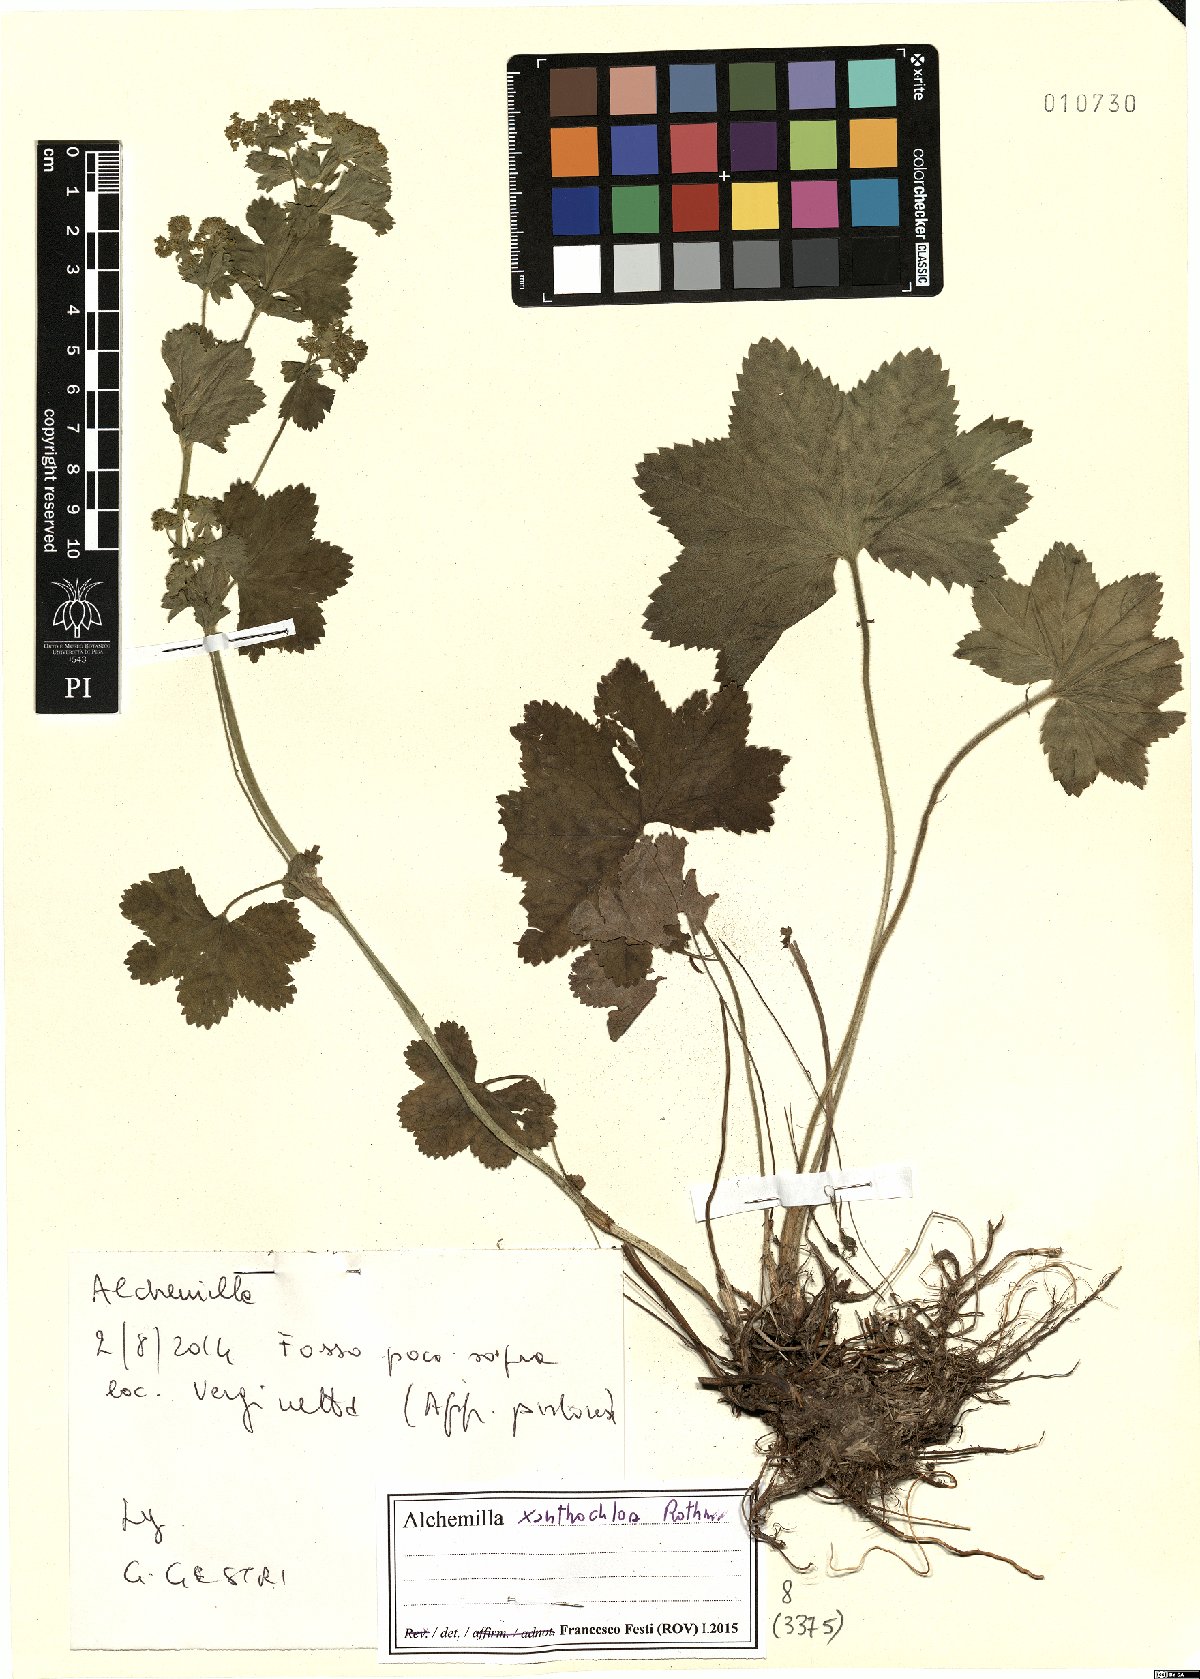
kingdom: Plantae
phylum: Tracheophyta
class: Magnoliopsida
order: Rosales
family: Rosaceae
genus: Alchemilla
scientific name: Alchemilla xanthochlora
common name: Intermediate lady's-mantle
